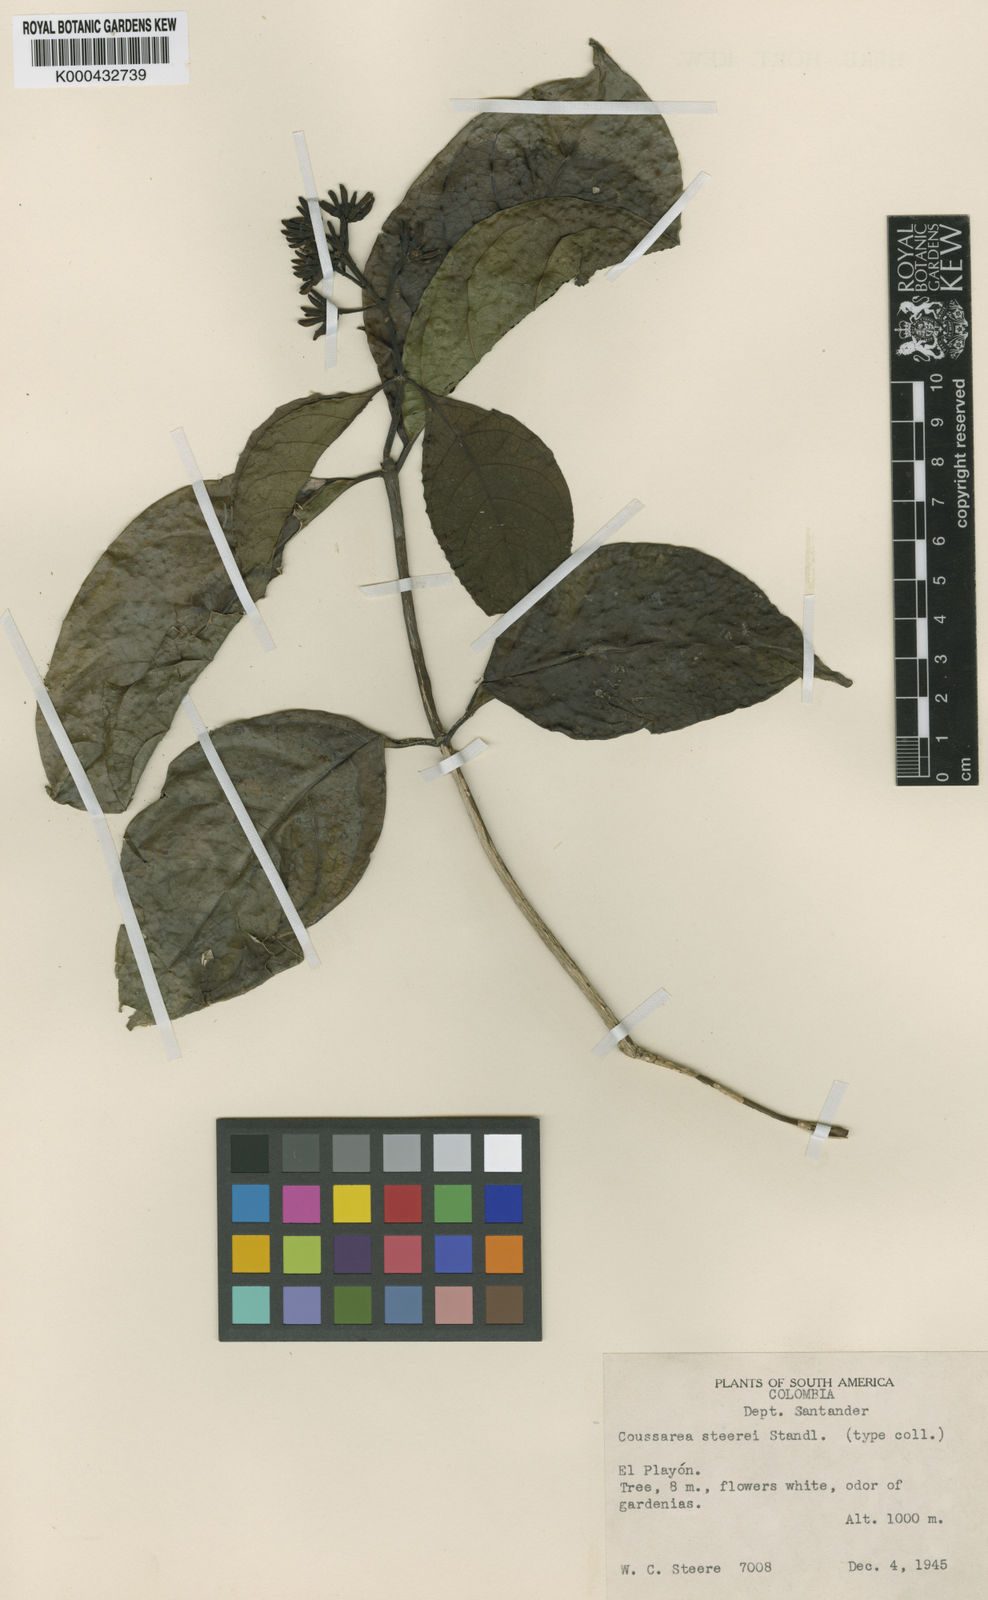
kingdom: Plantae
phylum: Tracheophyta
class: Magnoliopsida
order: Gentianales
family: Rubiaceae
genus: Coussarea
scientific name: Coussarea
